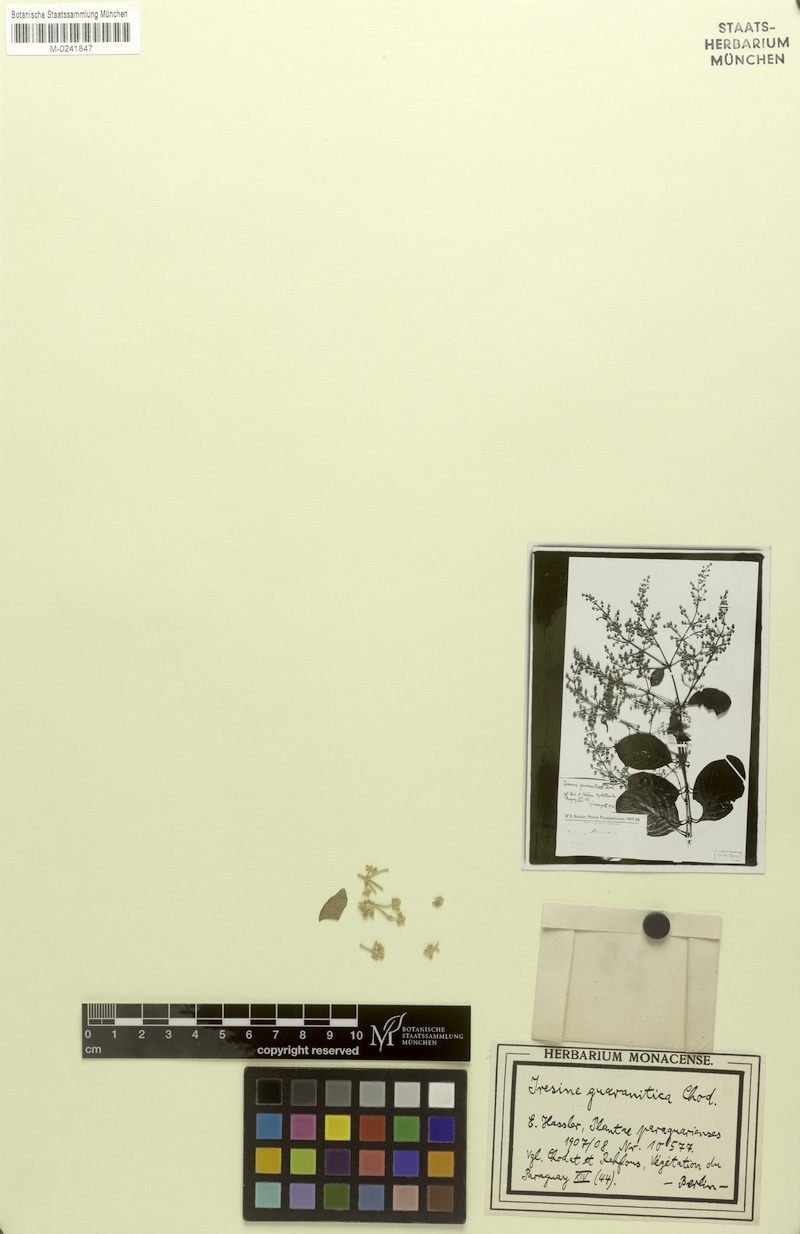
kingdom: Plantae
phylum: Tracheophyta
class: Magnoliopsida
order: Caryophyllales
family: Amaranthaceae
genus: Pedersenia
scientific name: Pedersenia macrophylla
